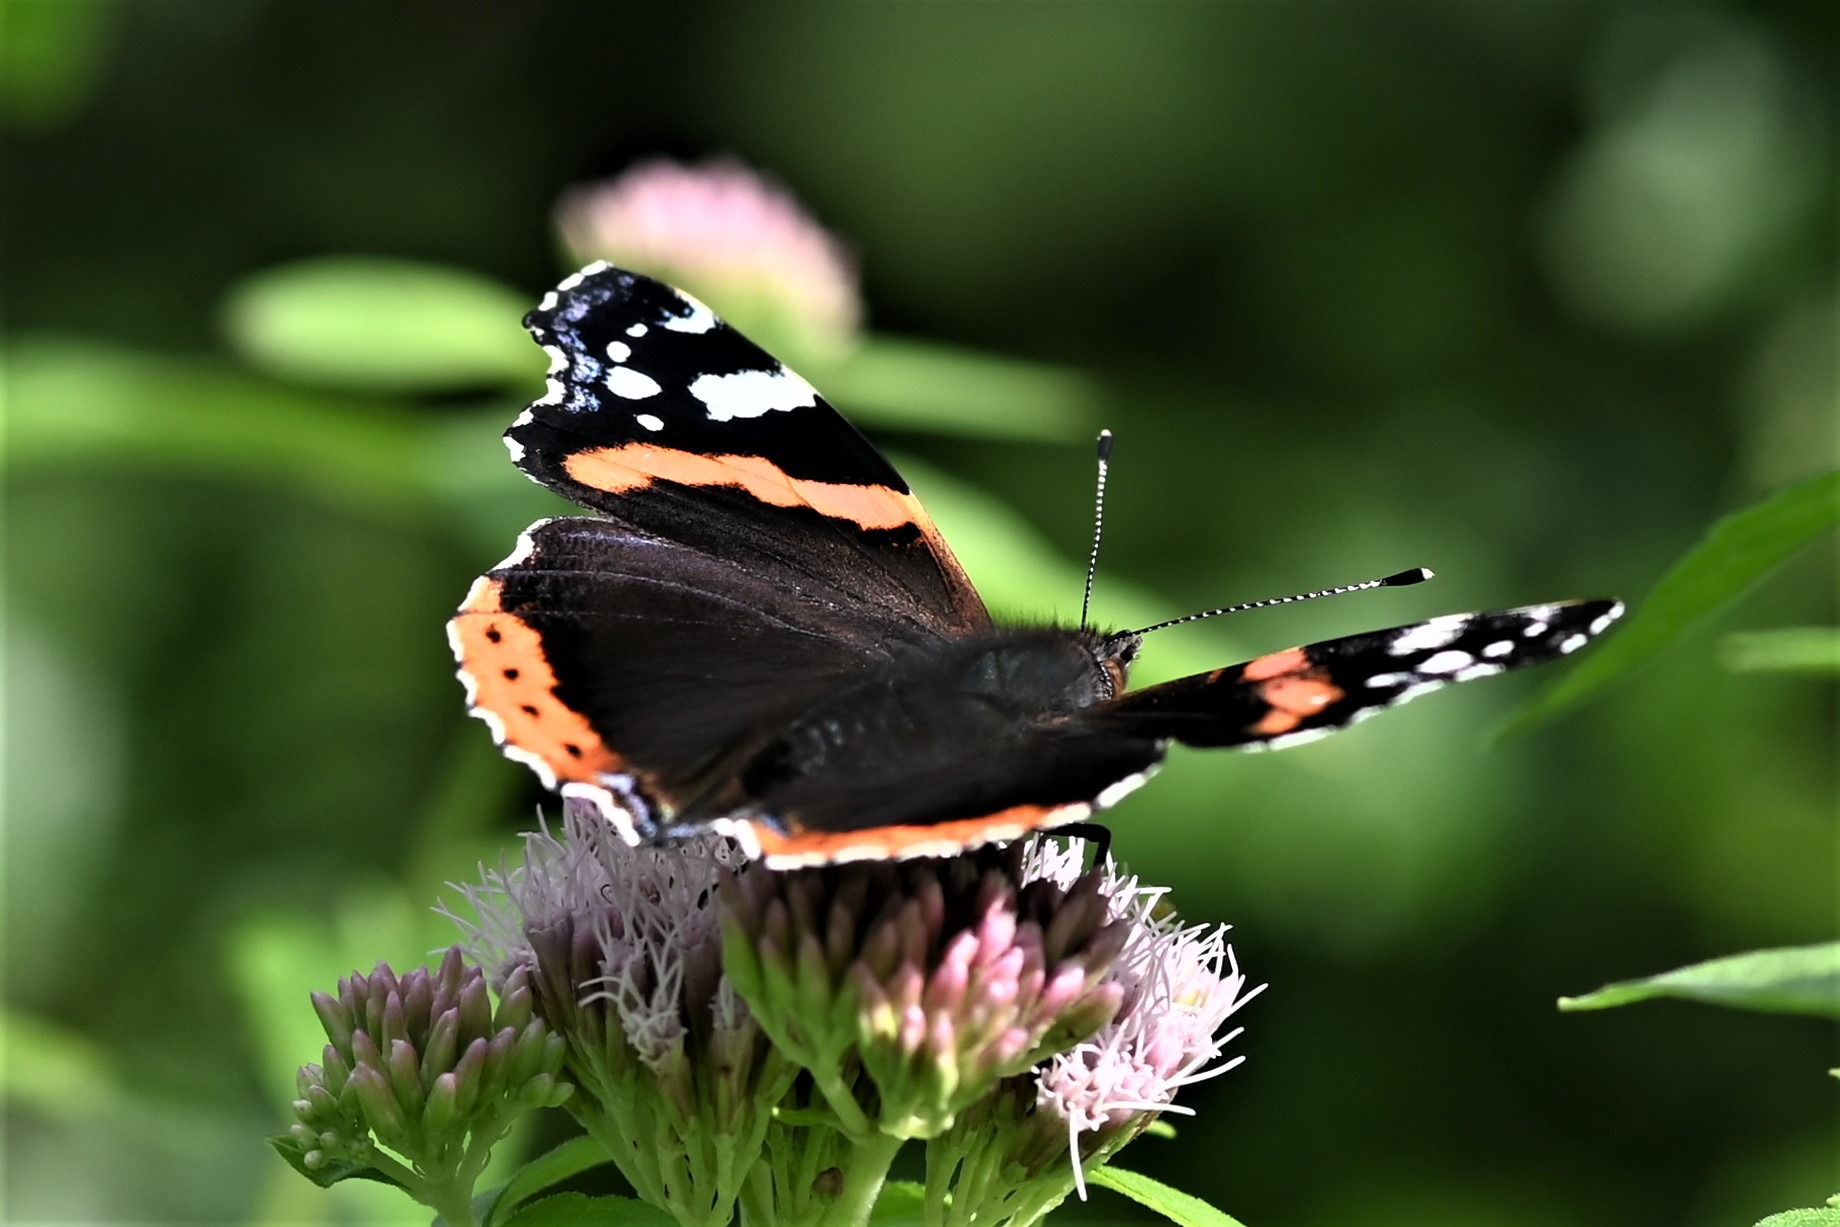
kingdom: Animalia
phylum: Arthropoda
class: Insecta
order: Lepidoptera
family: Nymphalidae
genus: Vanessa
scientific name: Vanessa atalanta
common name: Admiral
